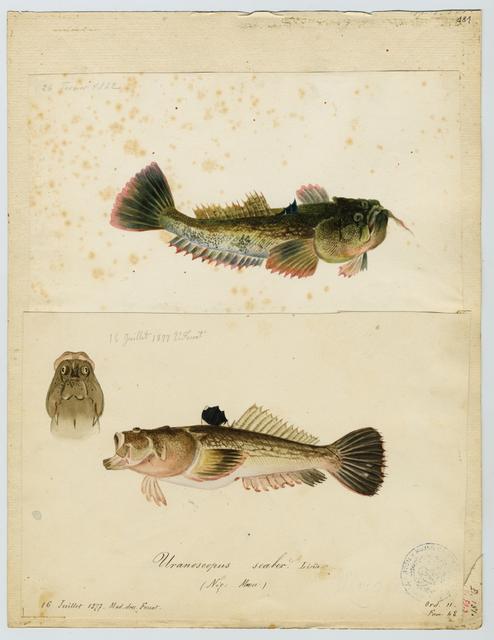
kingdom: Animalia
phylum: Chordata
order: Perciformes
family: Uranoscopidae
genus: Uranoscopus
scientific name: Uranoscopus scaber
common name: Stargazer
